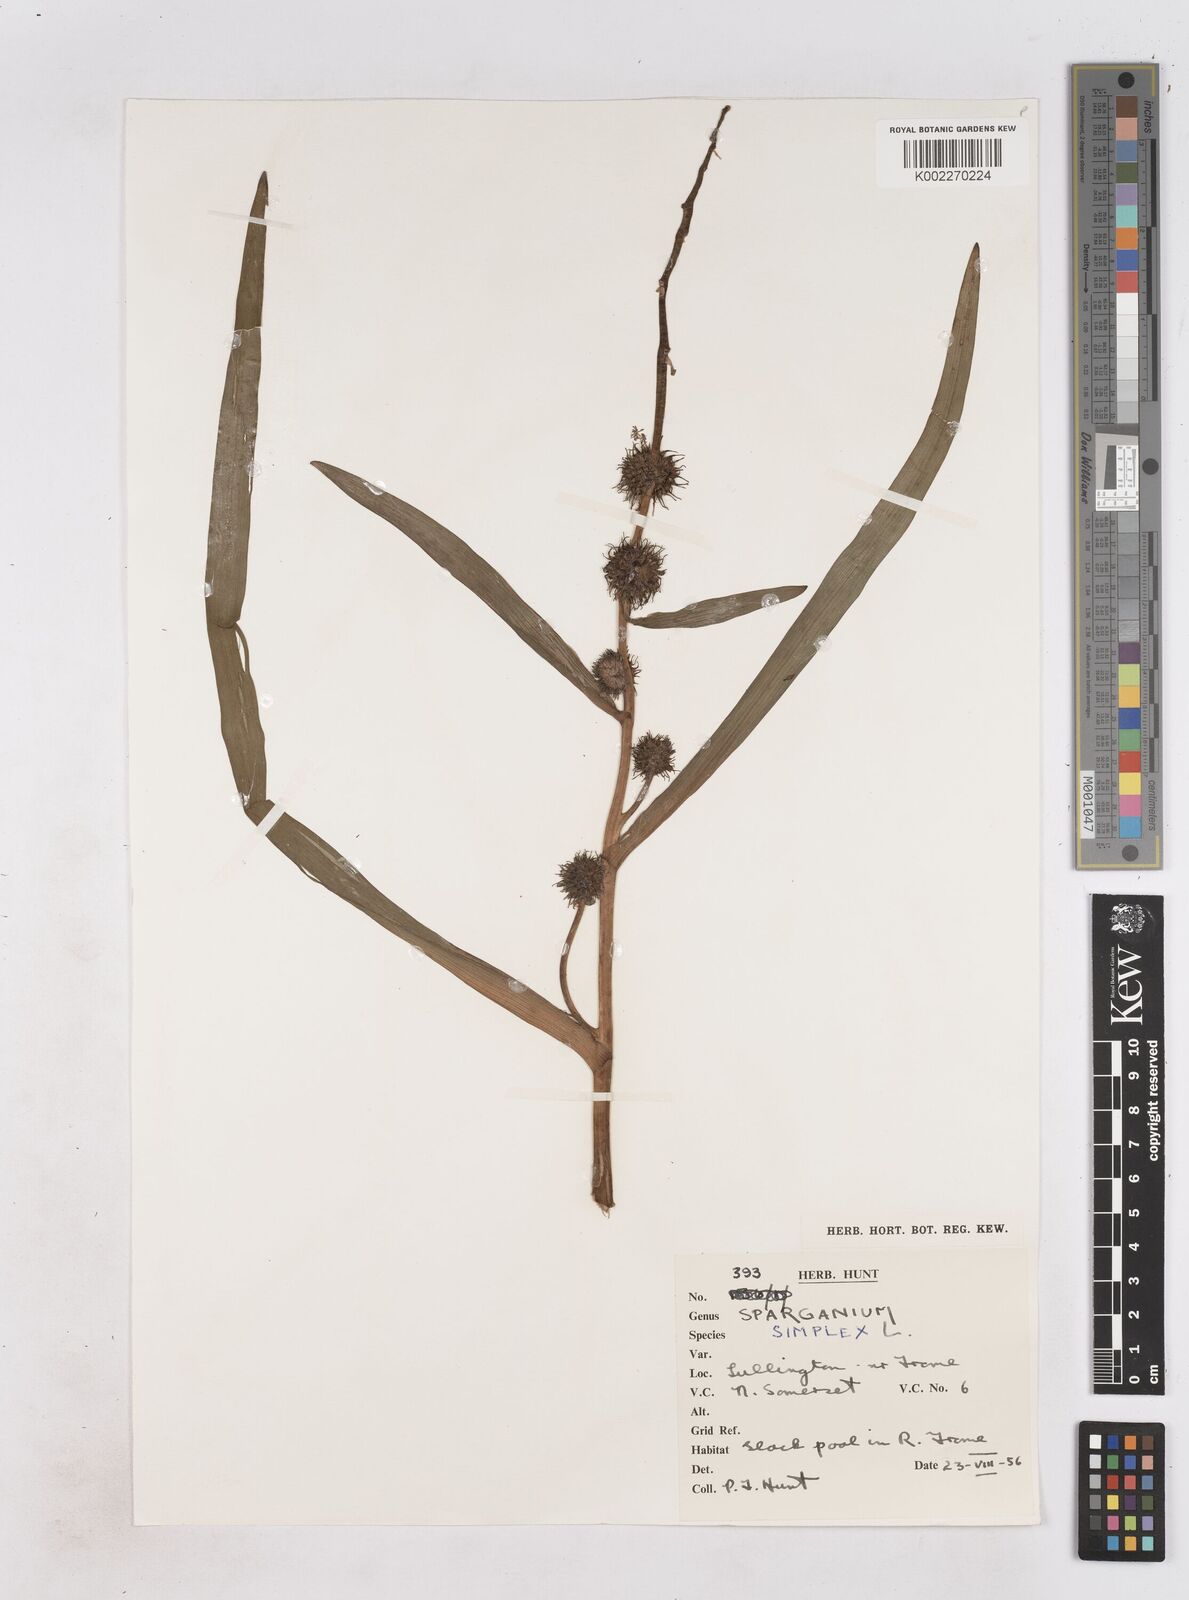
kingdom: Plantae
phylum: Tracheophyta
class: Liliopsida
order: Poales
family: Typhaceae
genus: Sparganium
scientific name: Sparganium emersum
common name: Unbranched bur-reed
